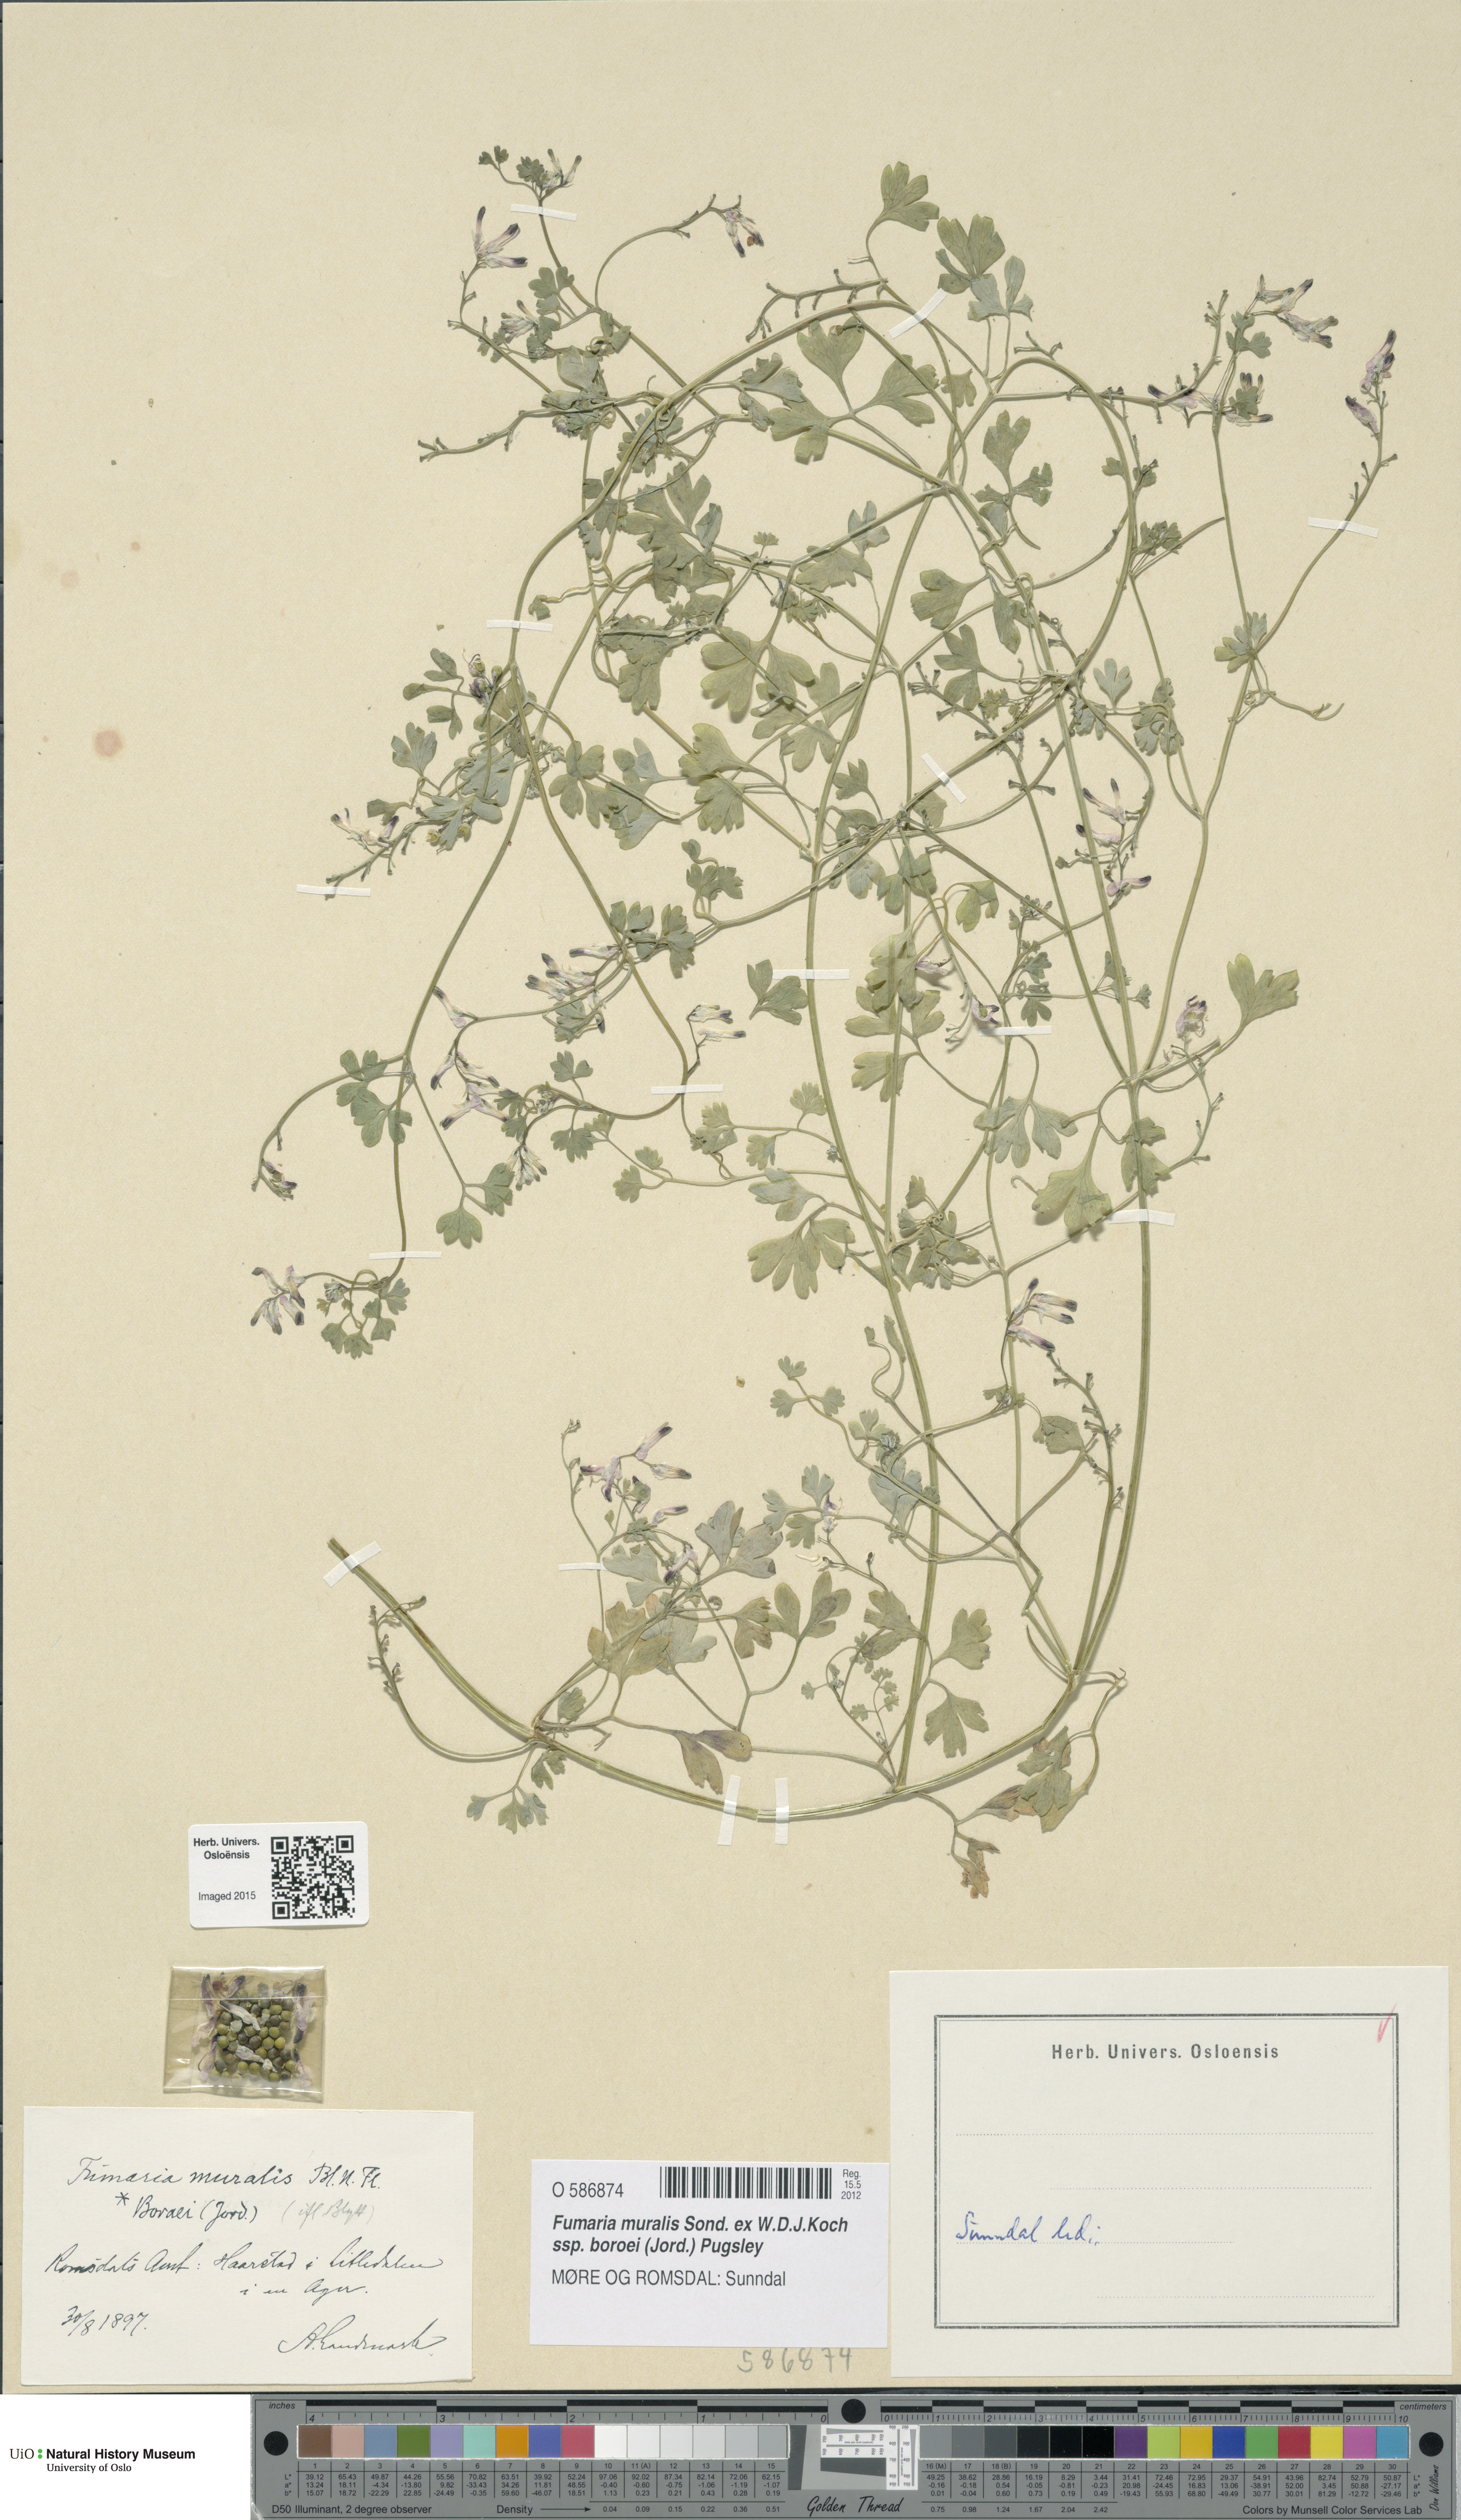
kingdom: Plantae
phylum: Tracheophyta
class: Magnoliopsida
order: Ranunculales
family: Papaveraceae
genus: Fumaria
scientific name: Fumaria muralis
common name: Common ramping-fumitory
